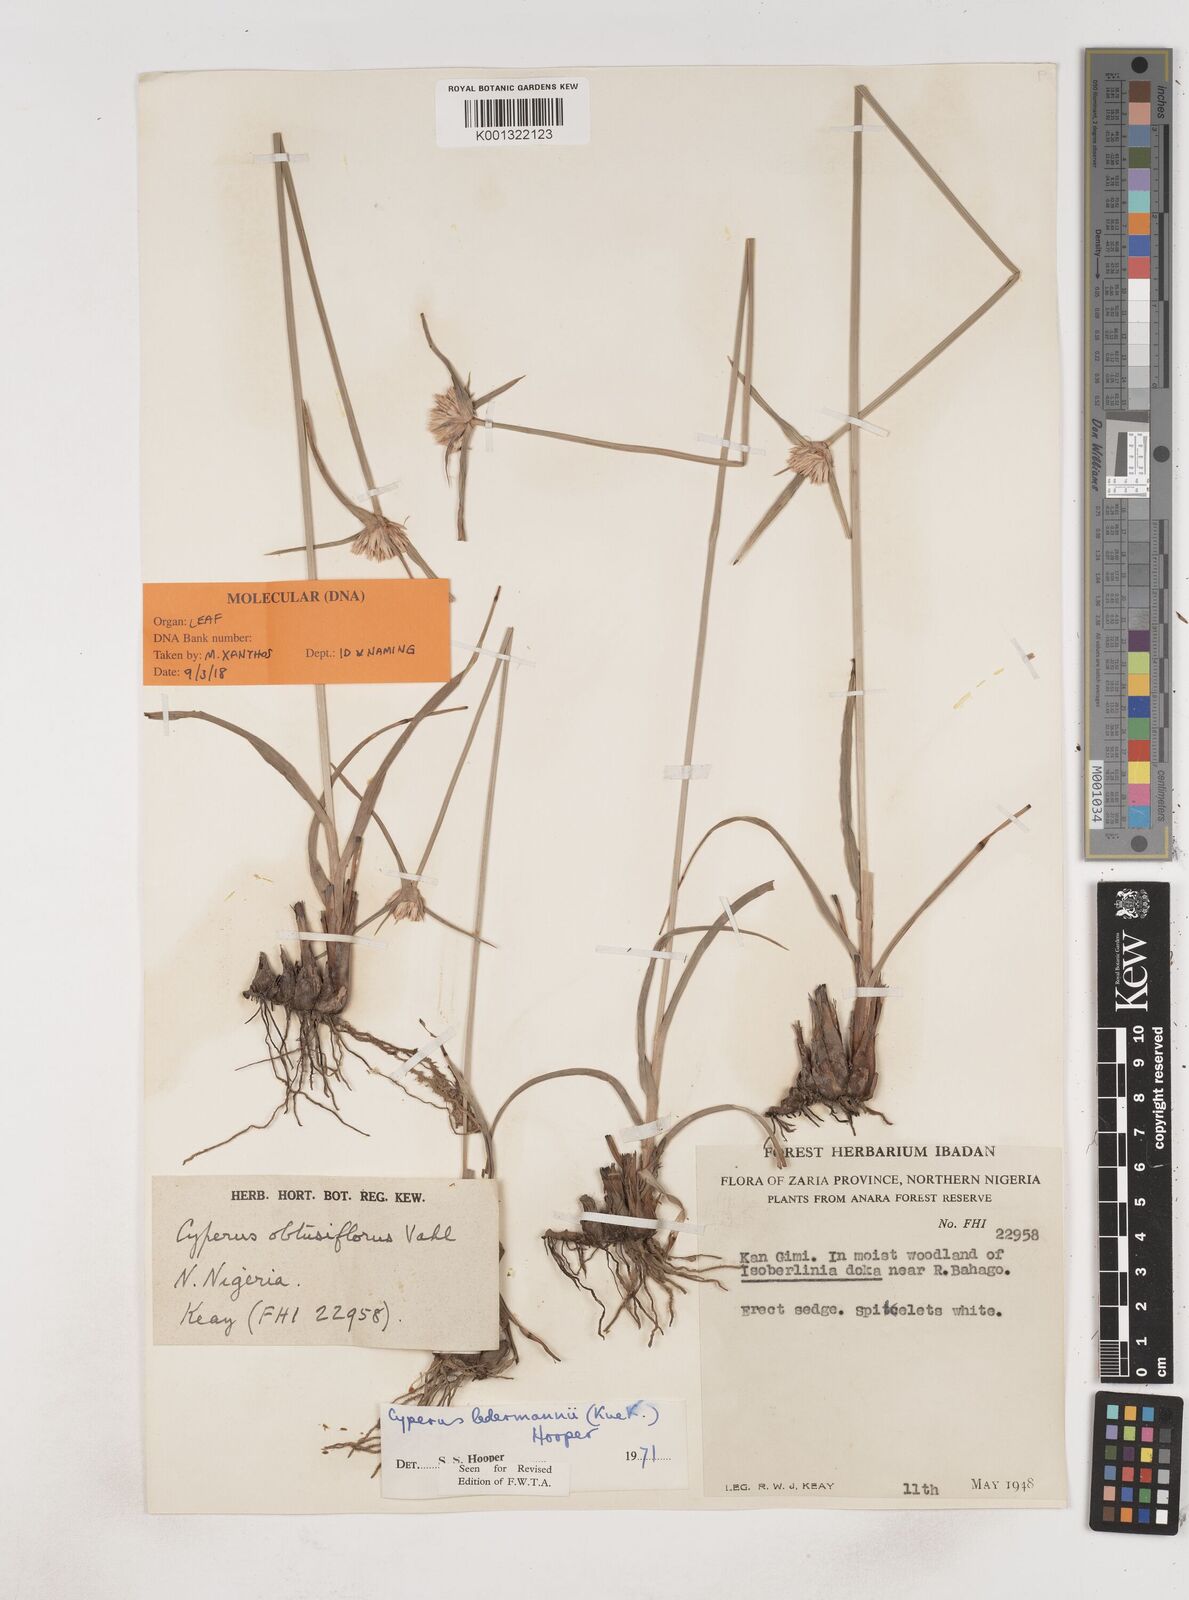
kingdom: Plantae
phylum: Tracheophyta
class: Liliopsida
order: Poales
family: Cyperaceae
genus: Cyperus
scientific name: Cyperus niveus
